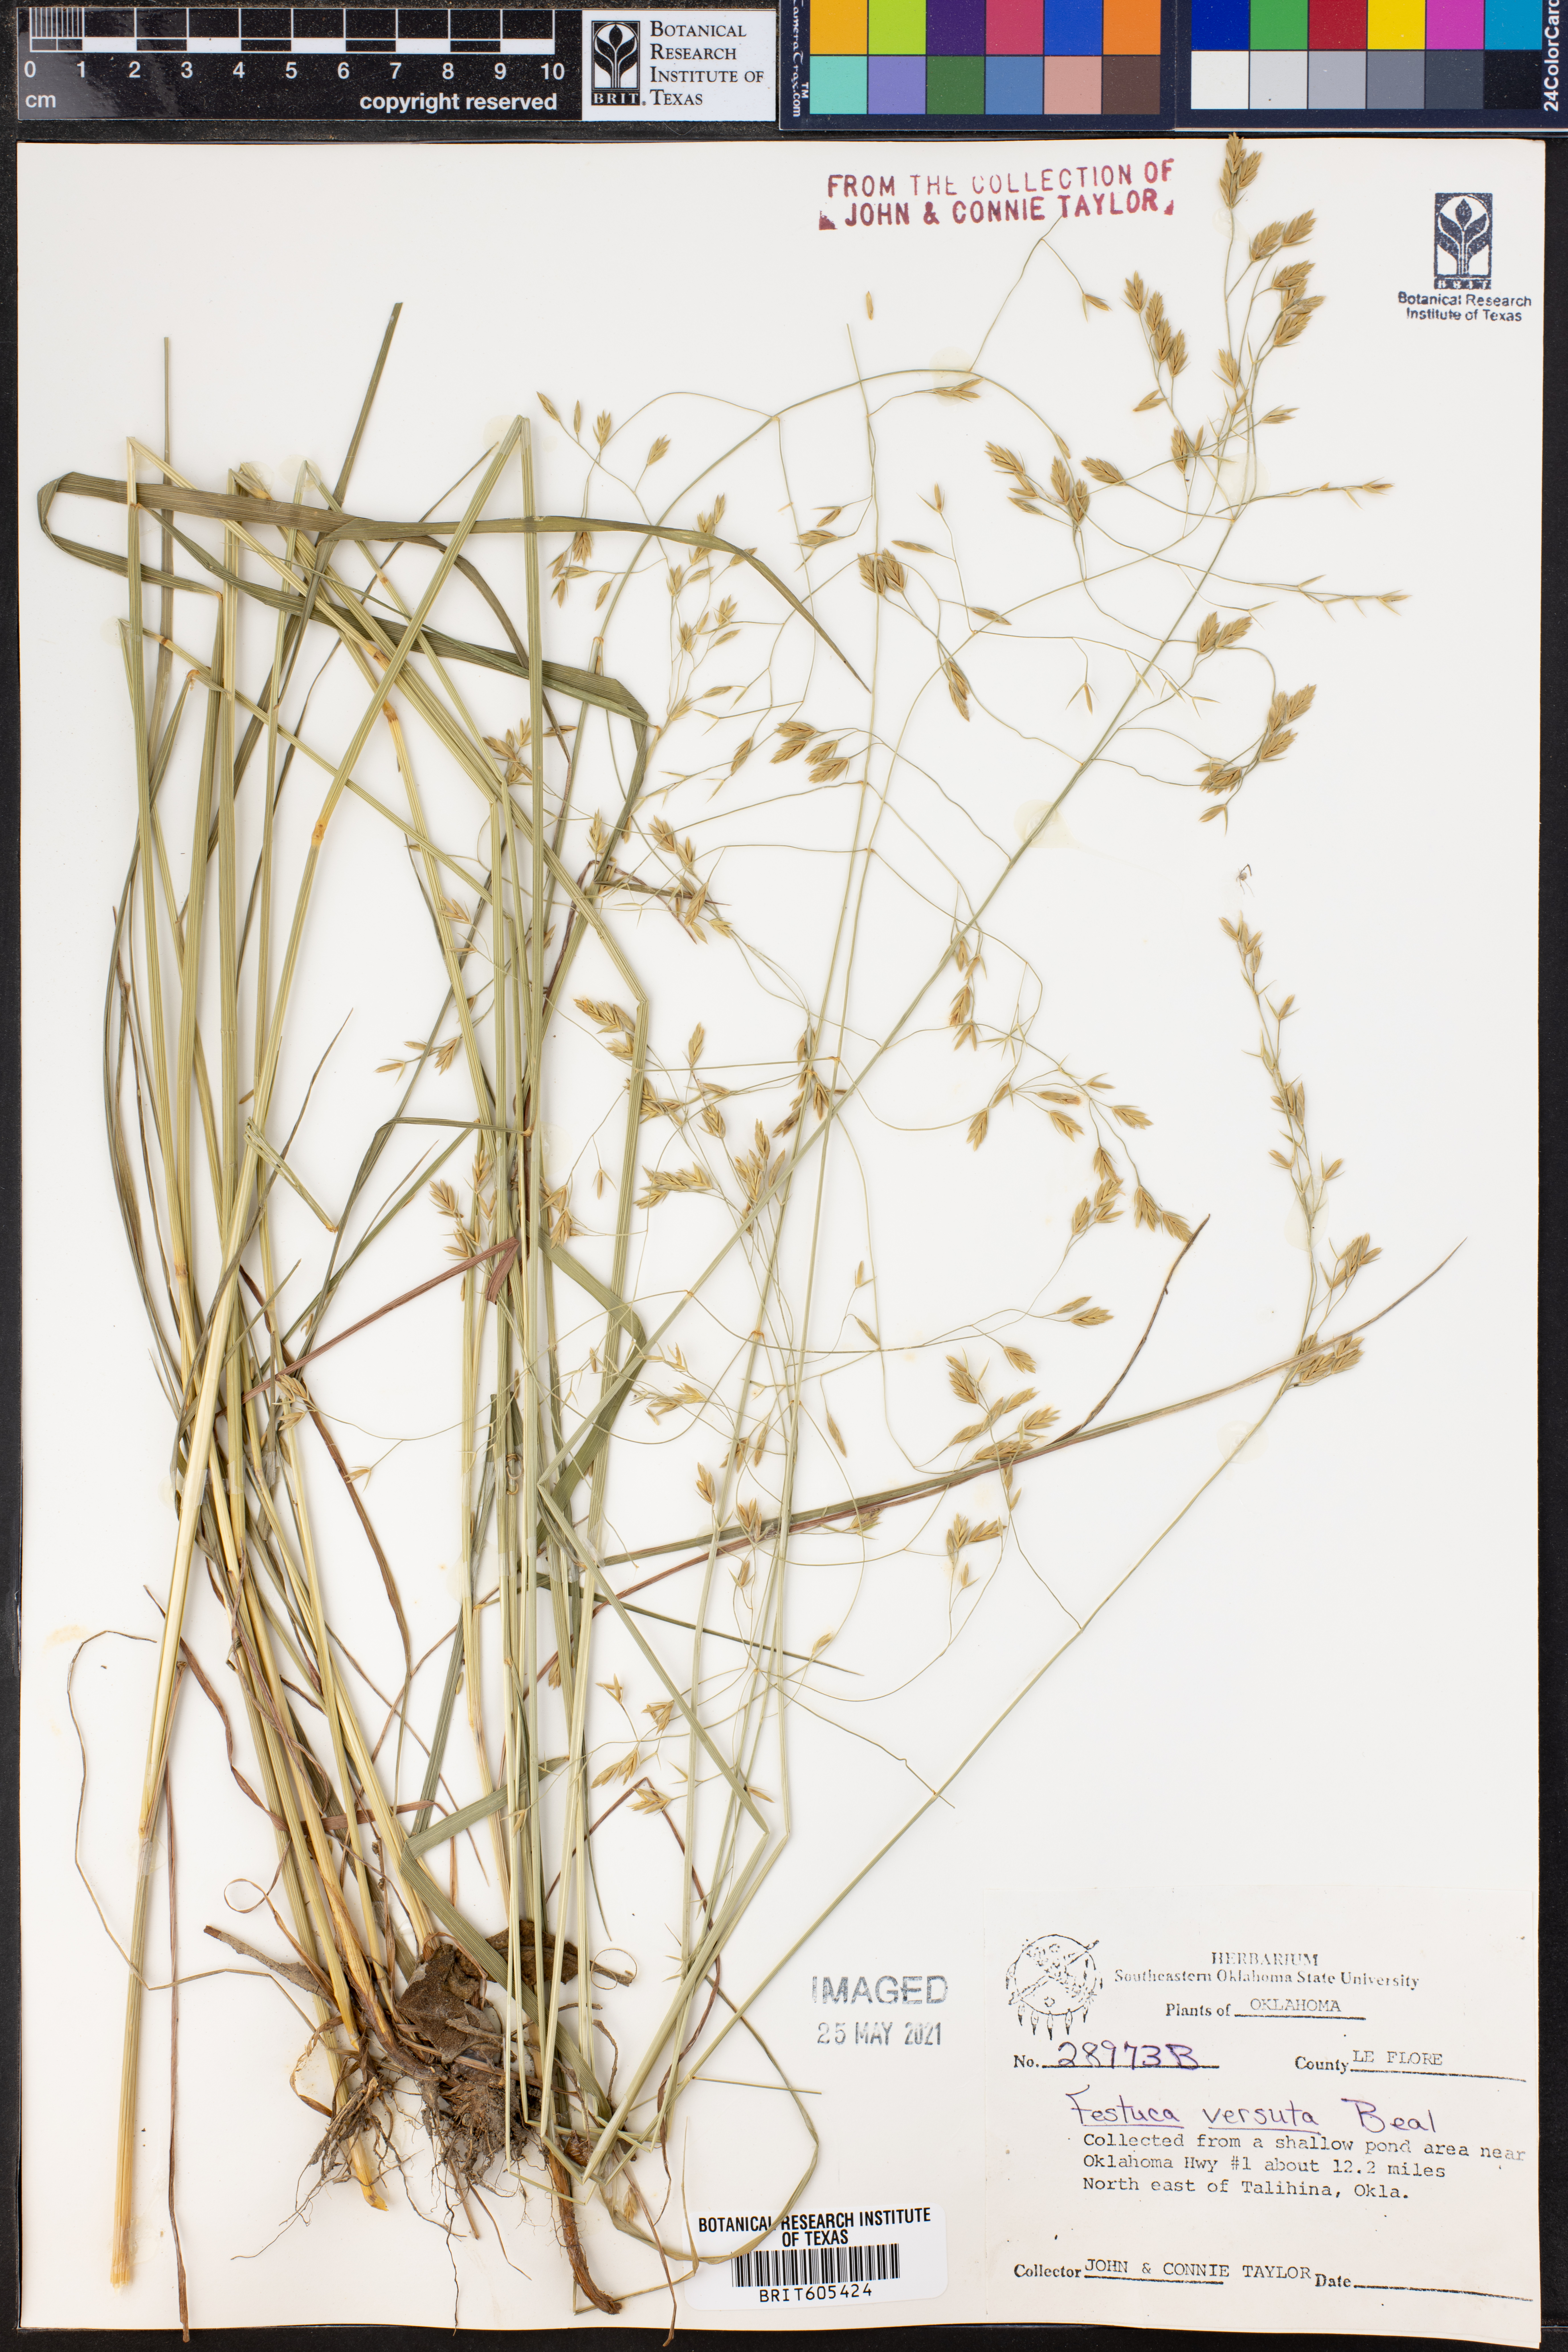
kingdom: Plantae
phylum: Tracheophyta
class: Liliopsida
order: Poales
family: Poaceae
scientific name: Poaceae
